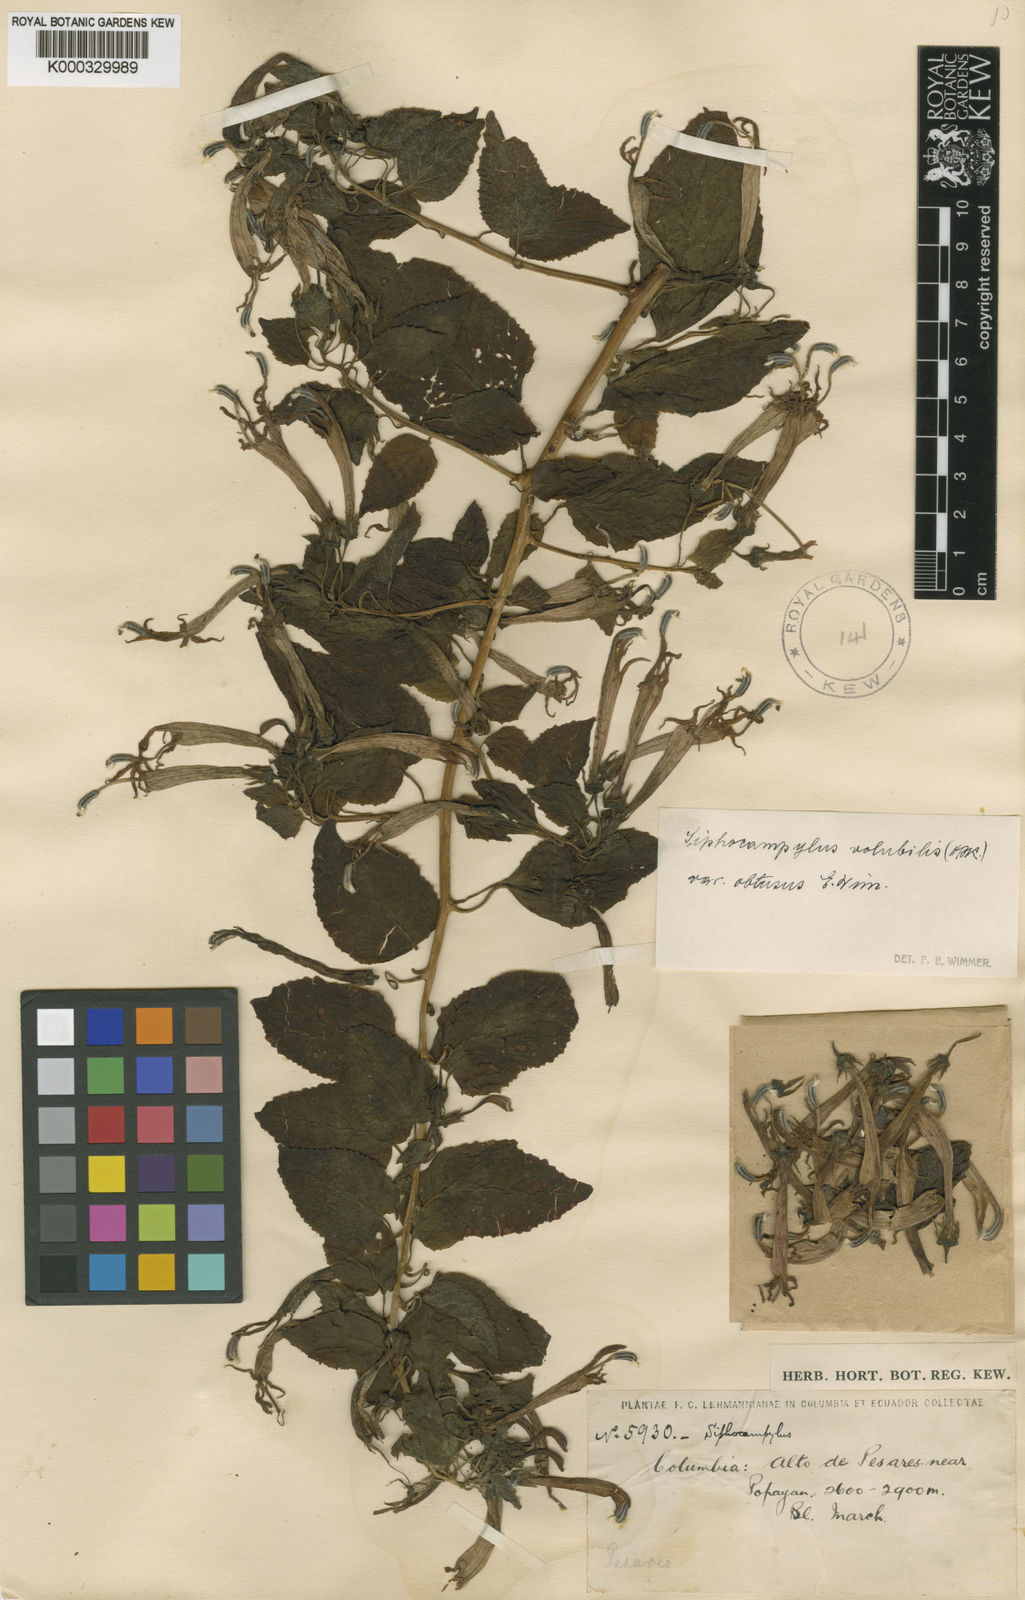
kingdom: Plantae
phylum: Tracheophyta
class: Magnoliopsida
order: Asterales
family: Campanulaceae
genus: Siphocampylus
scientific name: Siphocampylus cordatus
